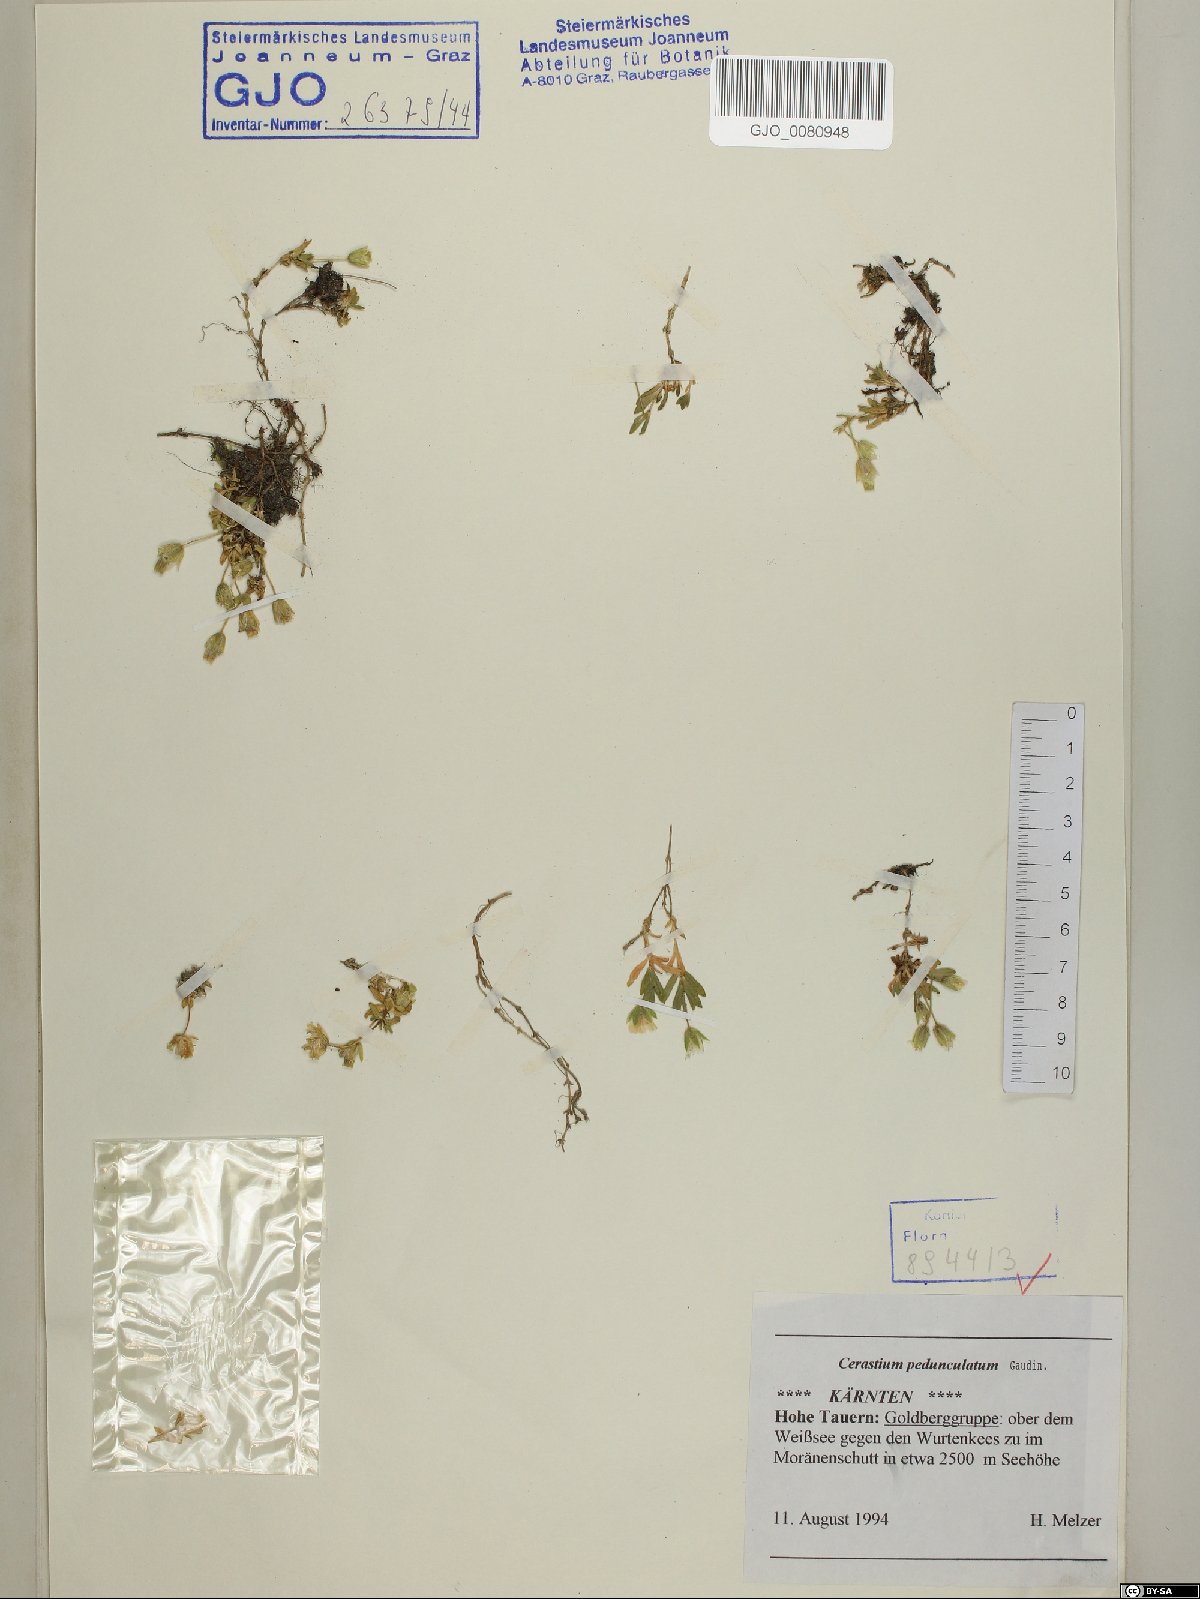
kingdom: Plantae
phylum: Tracheophyta
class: Magnoliopsida
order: Caryophyllales
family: Caryophyllaceae
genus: Cerastium
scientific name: Cerastium pedunculatum
